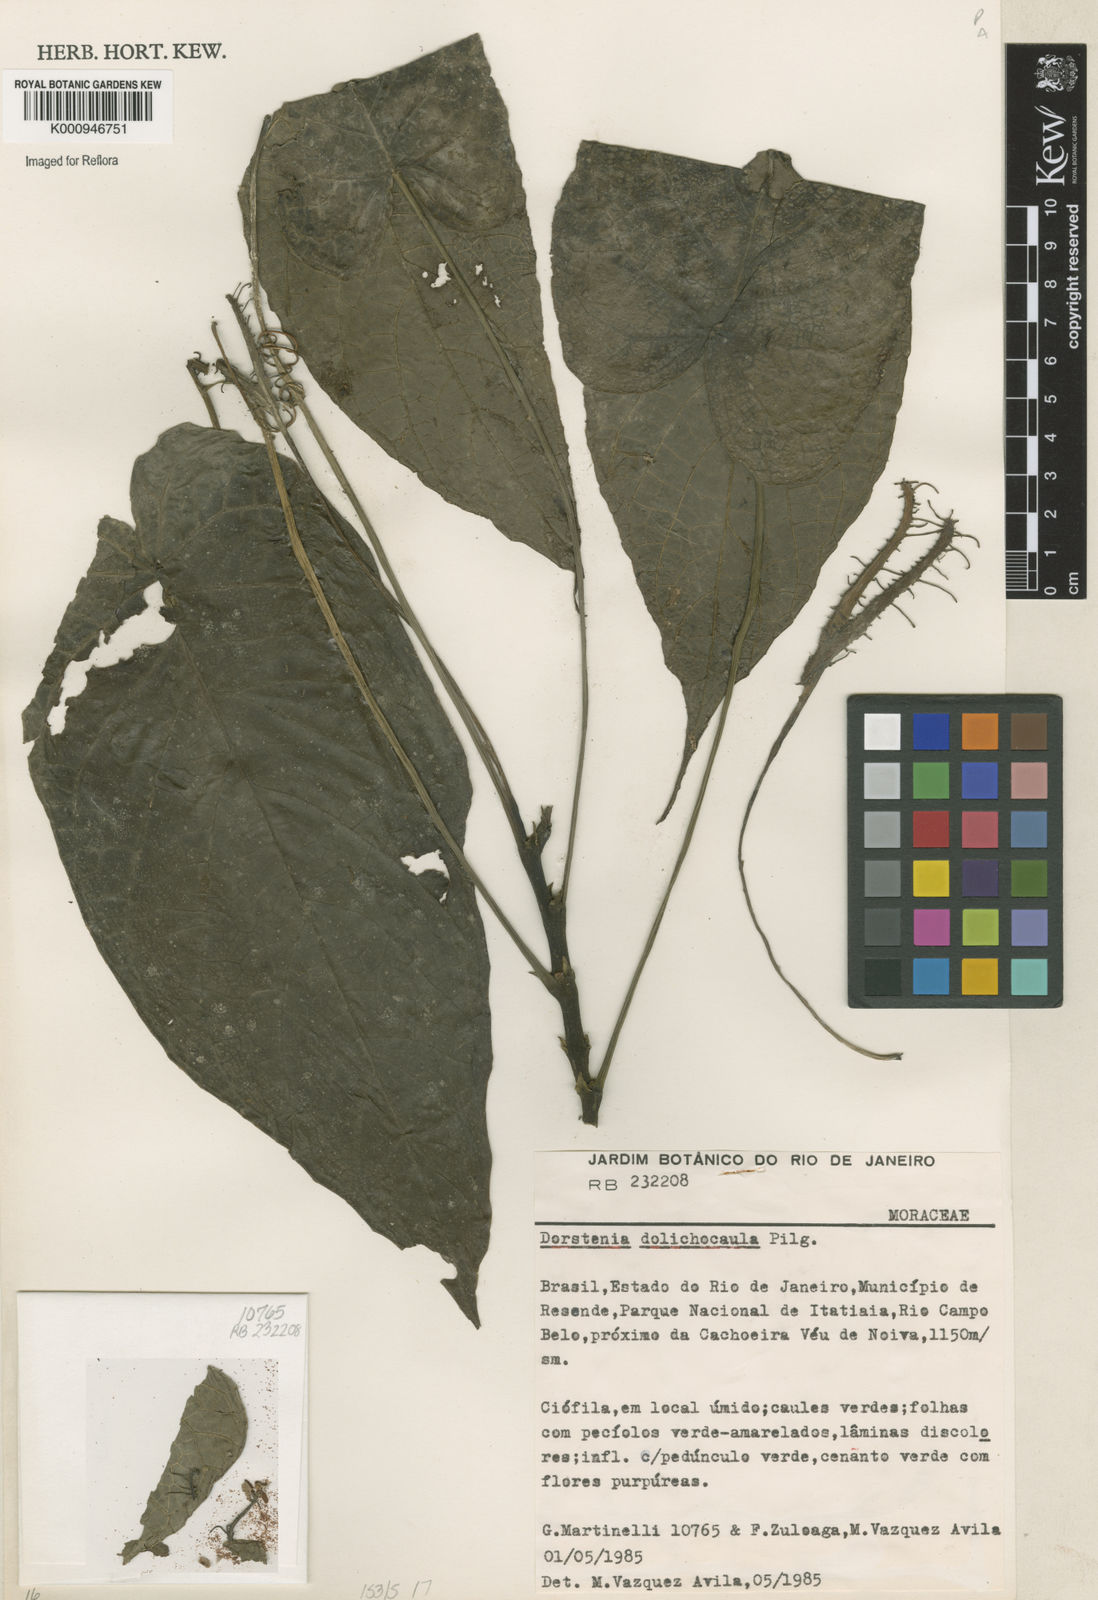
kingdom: Plantae
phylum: Tracheophyta
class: Magnoliopsida
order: Rosales
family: Moraceae
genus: Dorstenia
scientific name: Dorstenia ramosa
